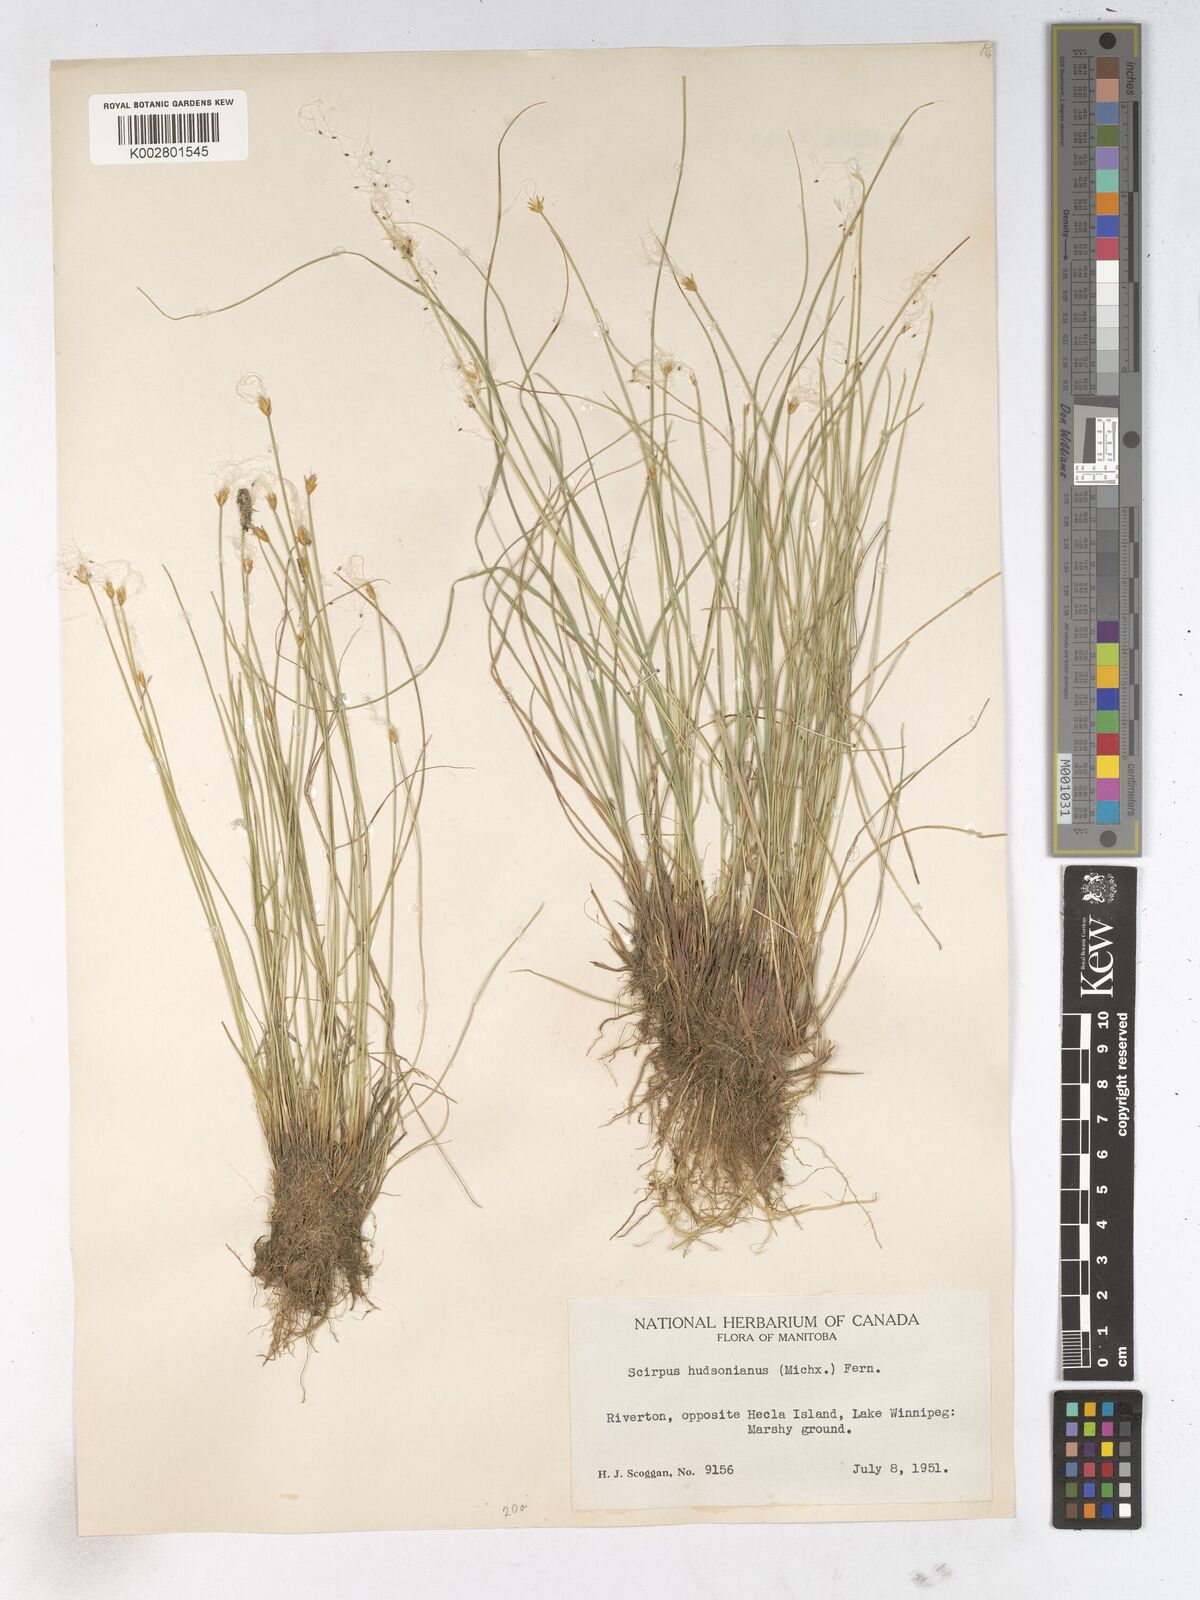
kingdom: Plantae
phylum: Tracheophyta
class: Liliopsida
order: Poales
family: Cyperaceae
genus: Trichophorum
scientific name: Trichophorum alpinum
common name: Alpine bulrush
